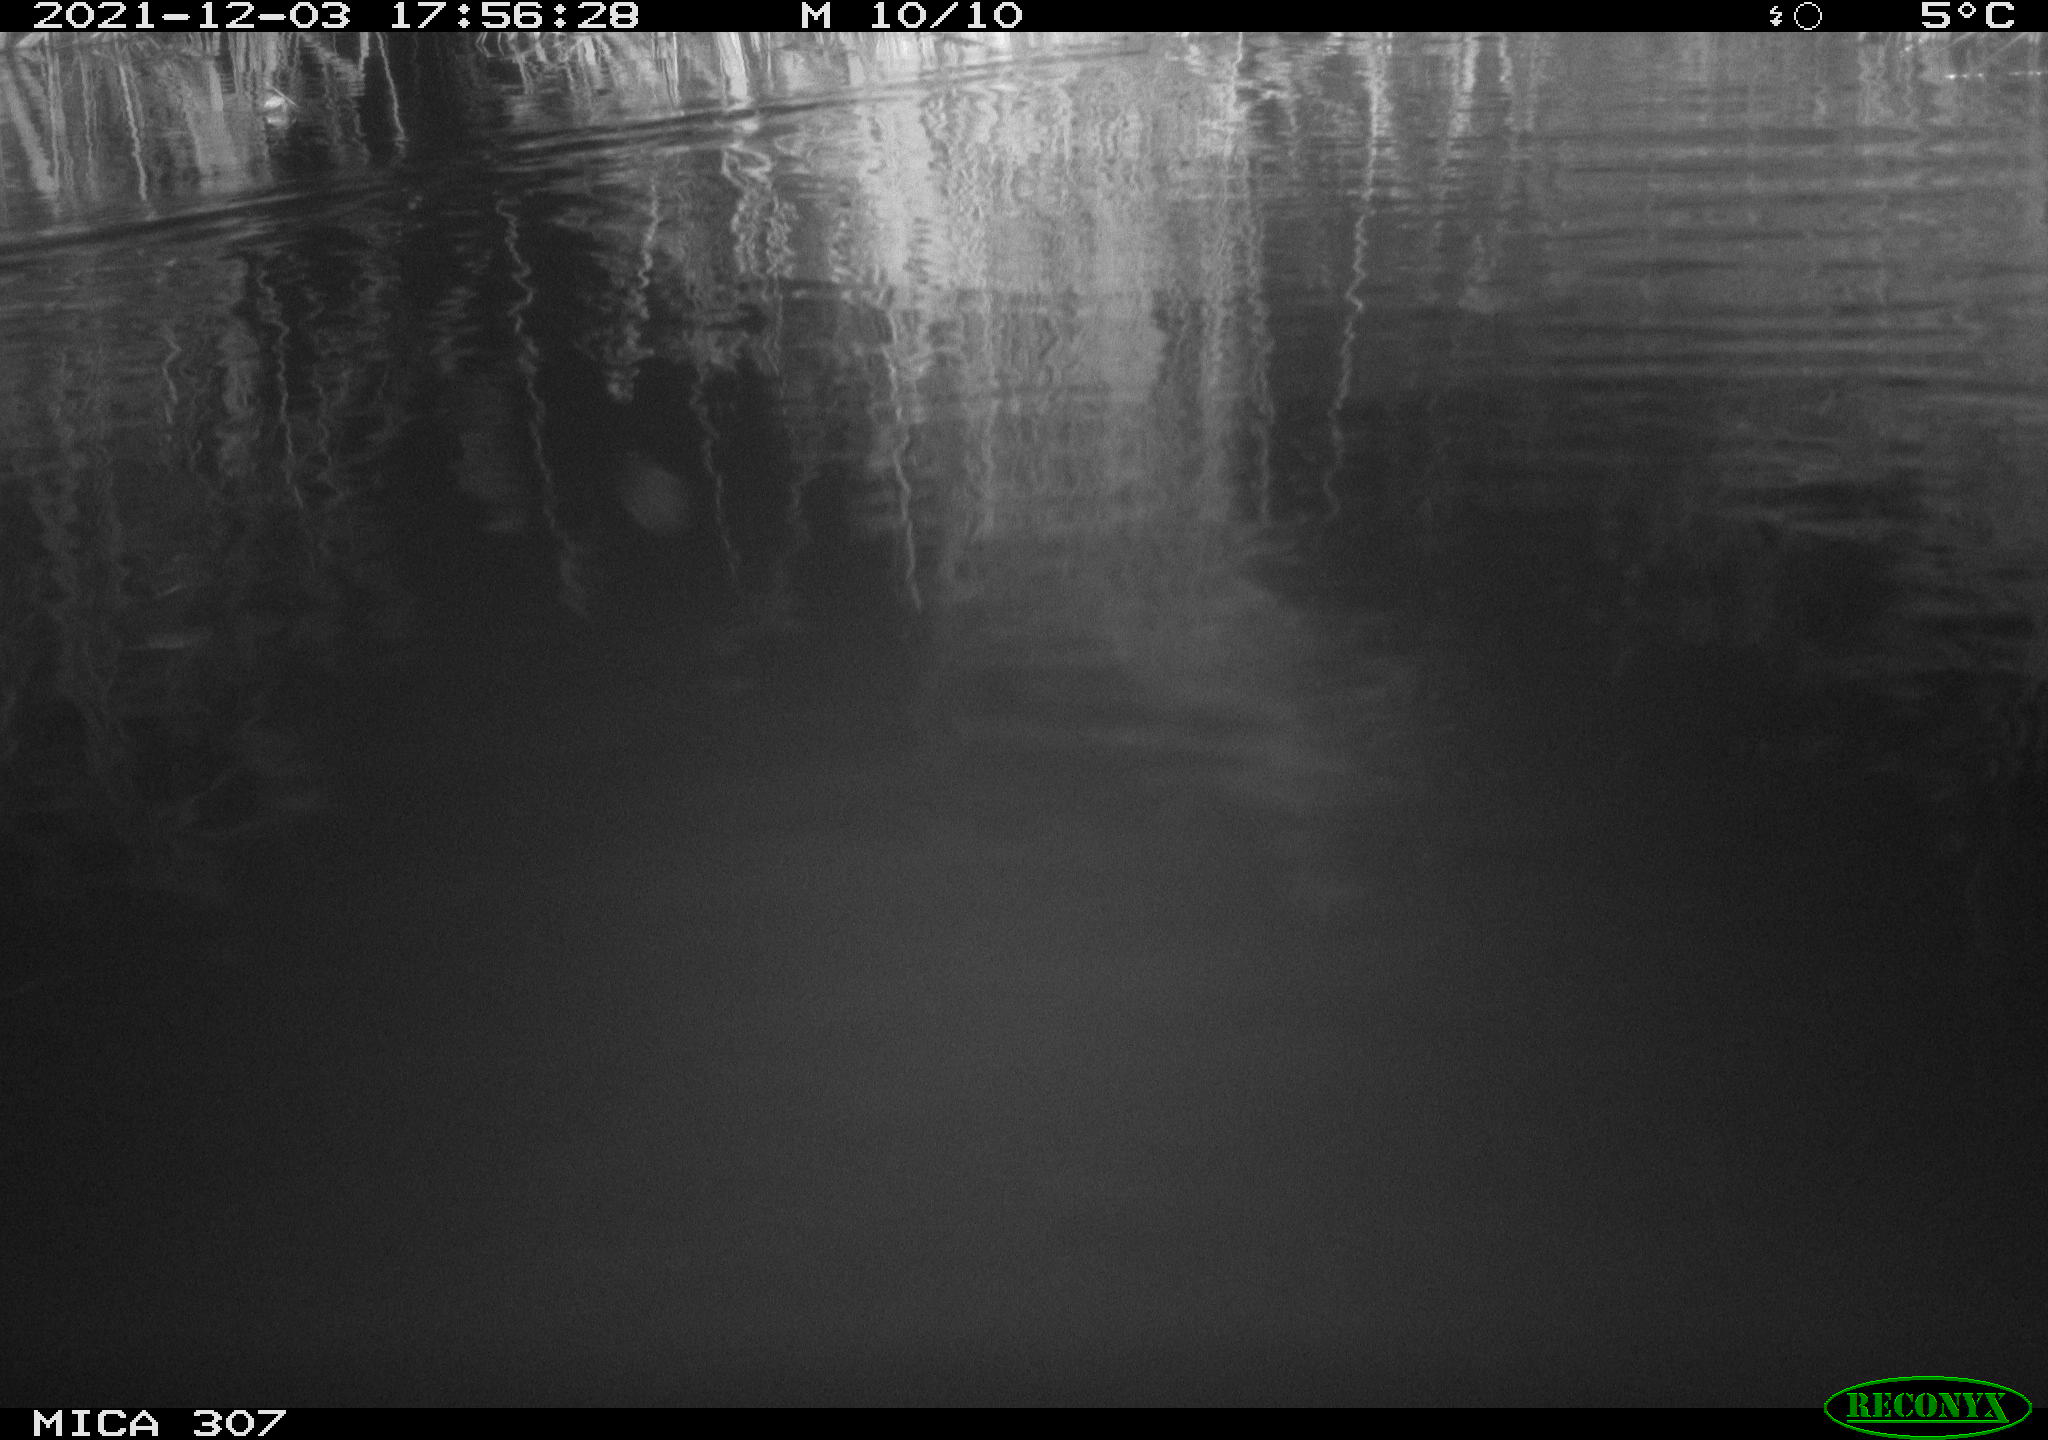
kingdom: Animalia
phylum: Chordata
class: Mammalia
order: Rodentia
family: Cricetidae
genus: Ondatra
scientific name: Ondatra zibethicus
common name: Muskrat
